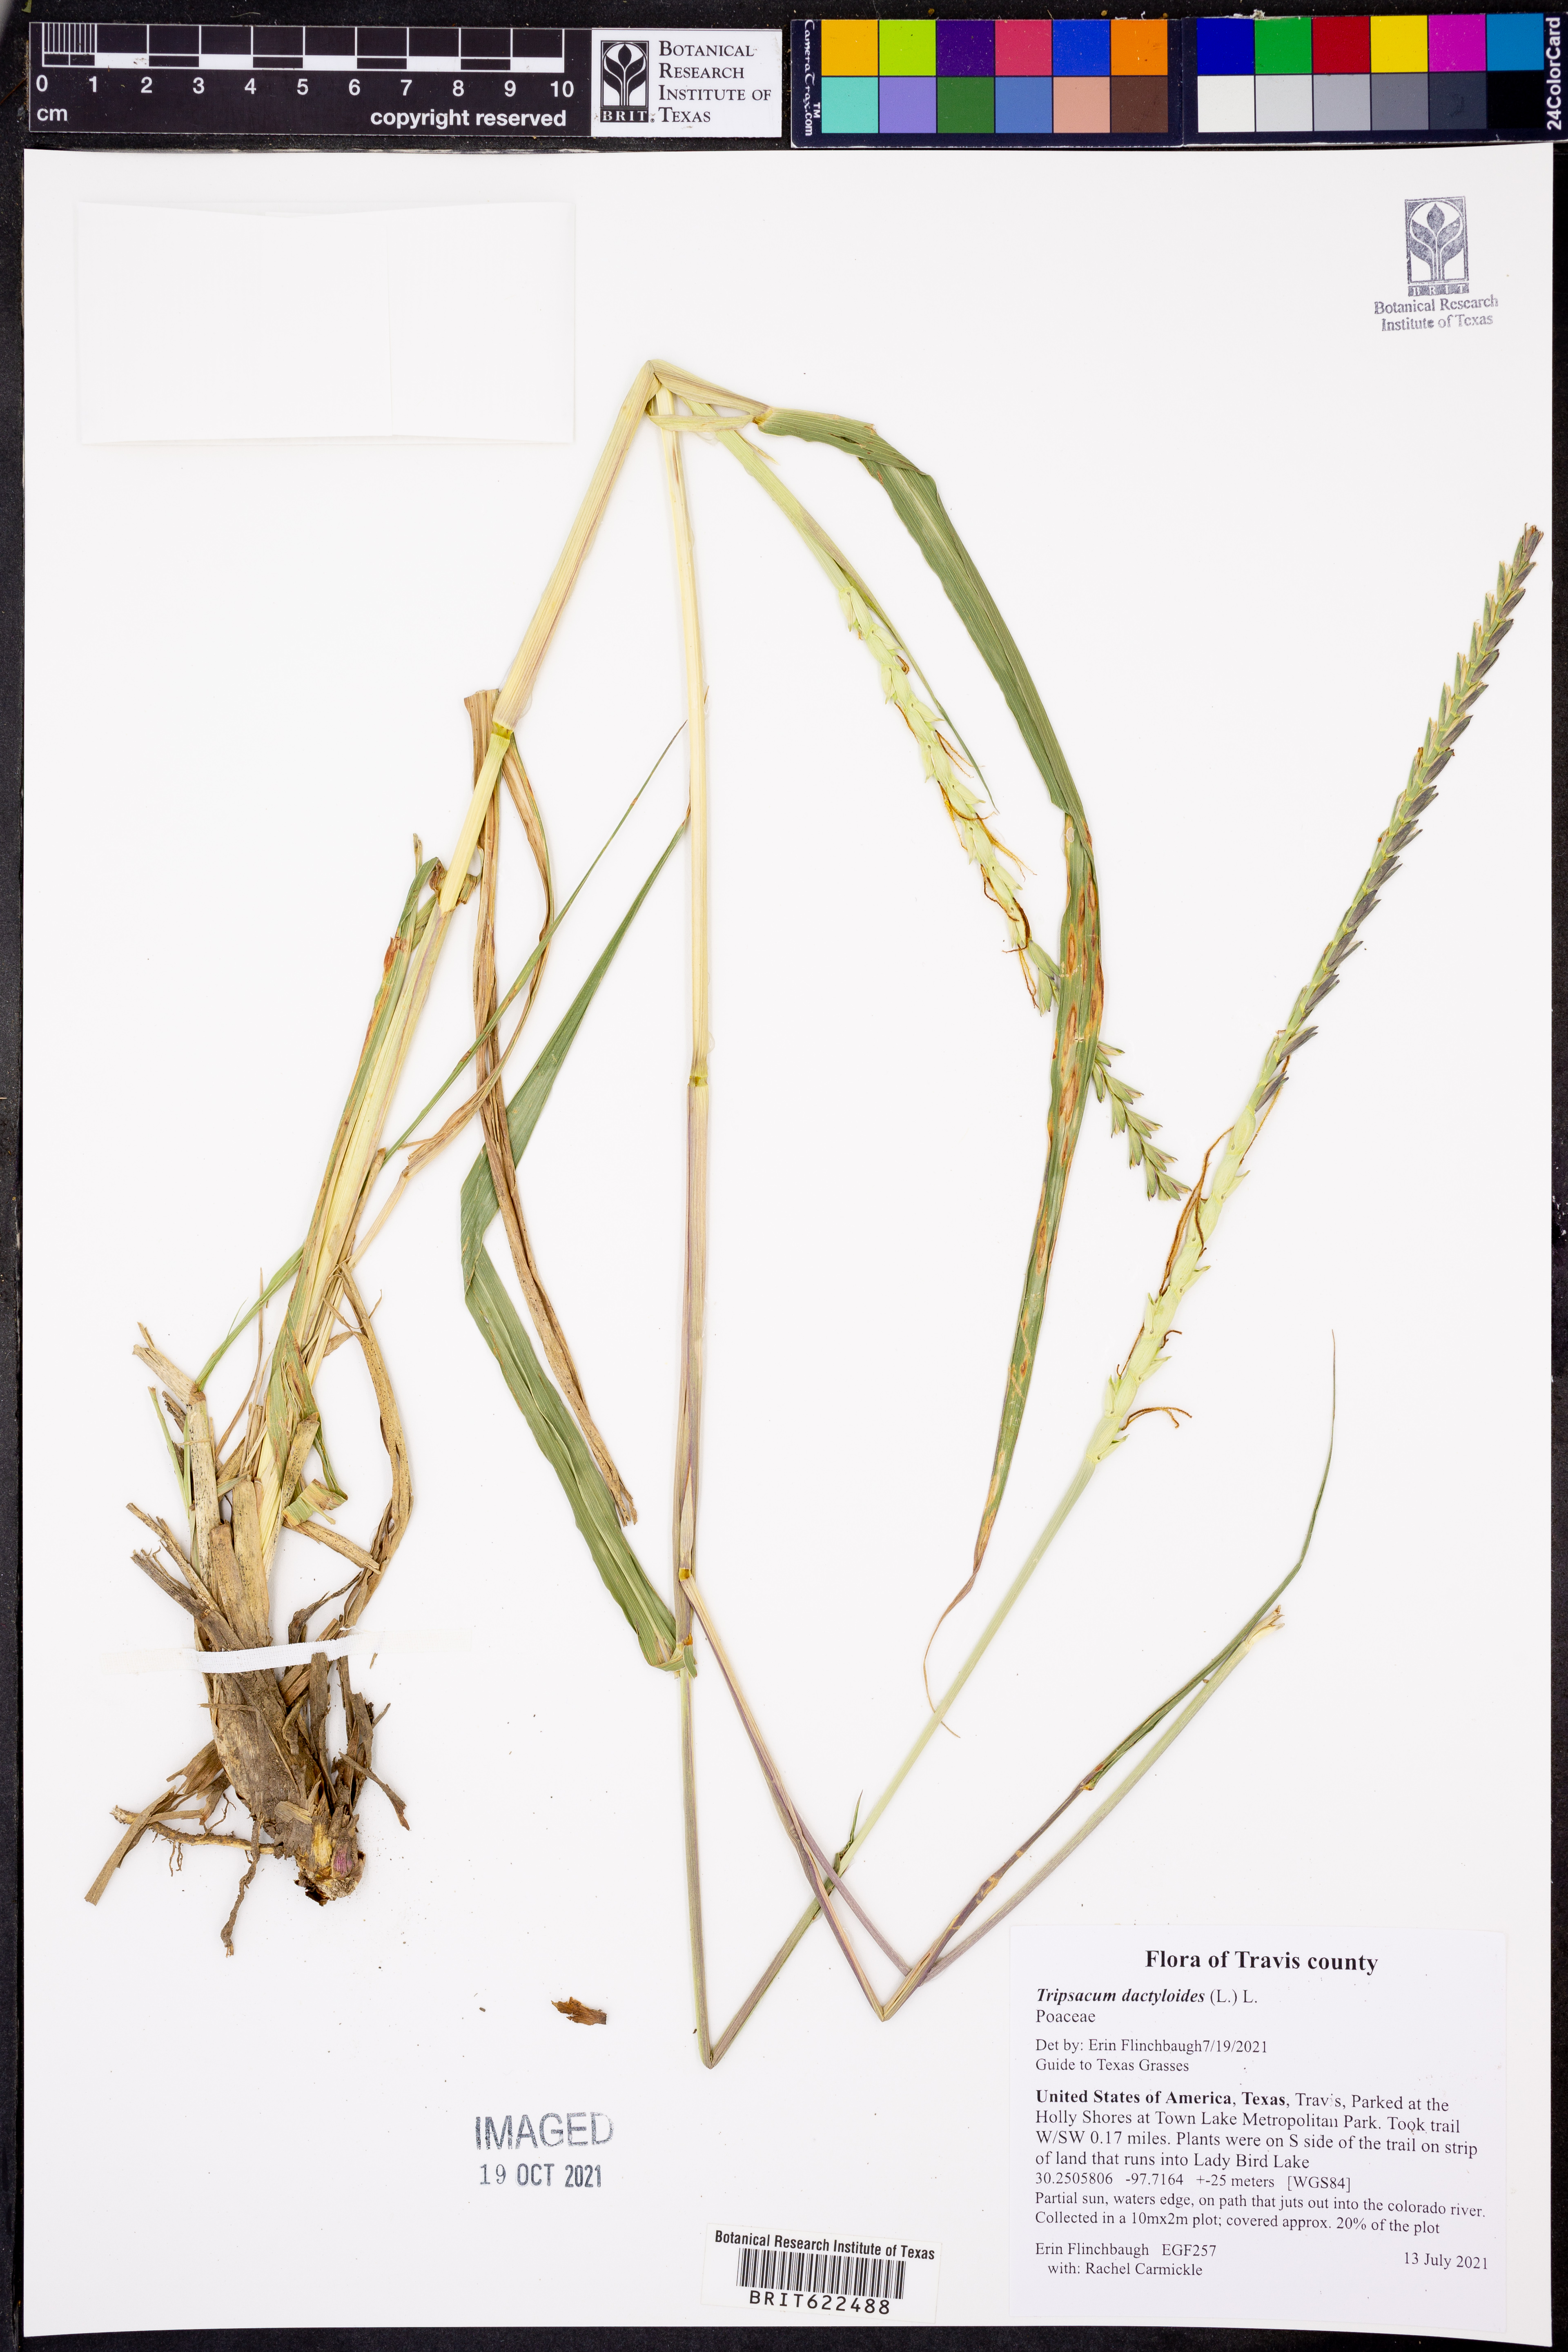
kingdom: Plantae
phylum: Tracheophyta
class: Liliopsida
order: Poales
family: Poaceae
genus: Tripsacum
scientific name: Tripsacum dactyloides
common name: Buffalo-grass
